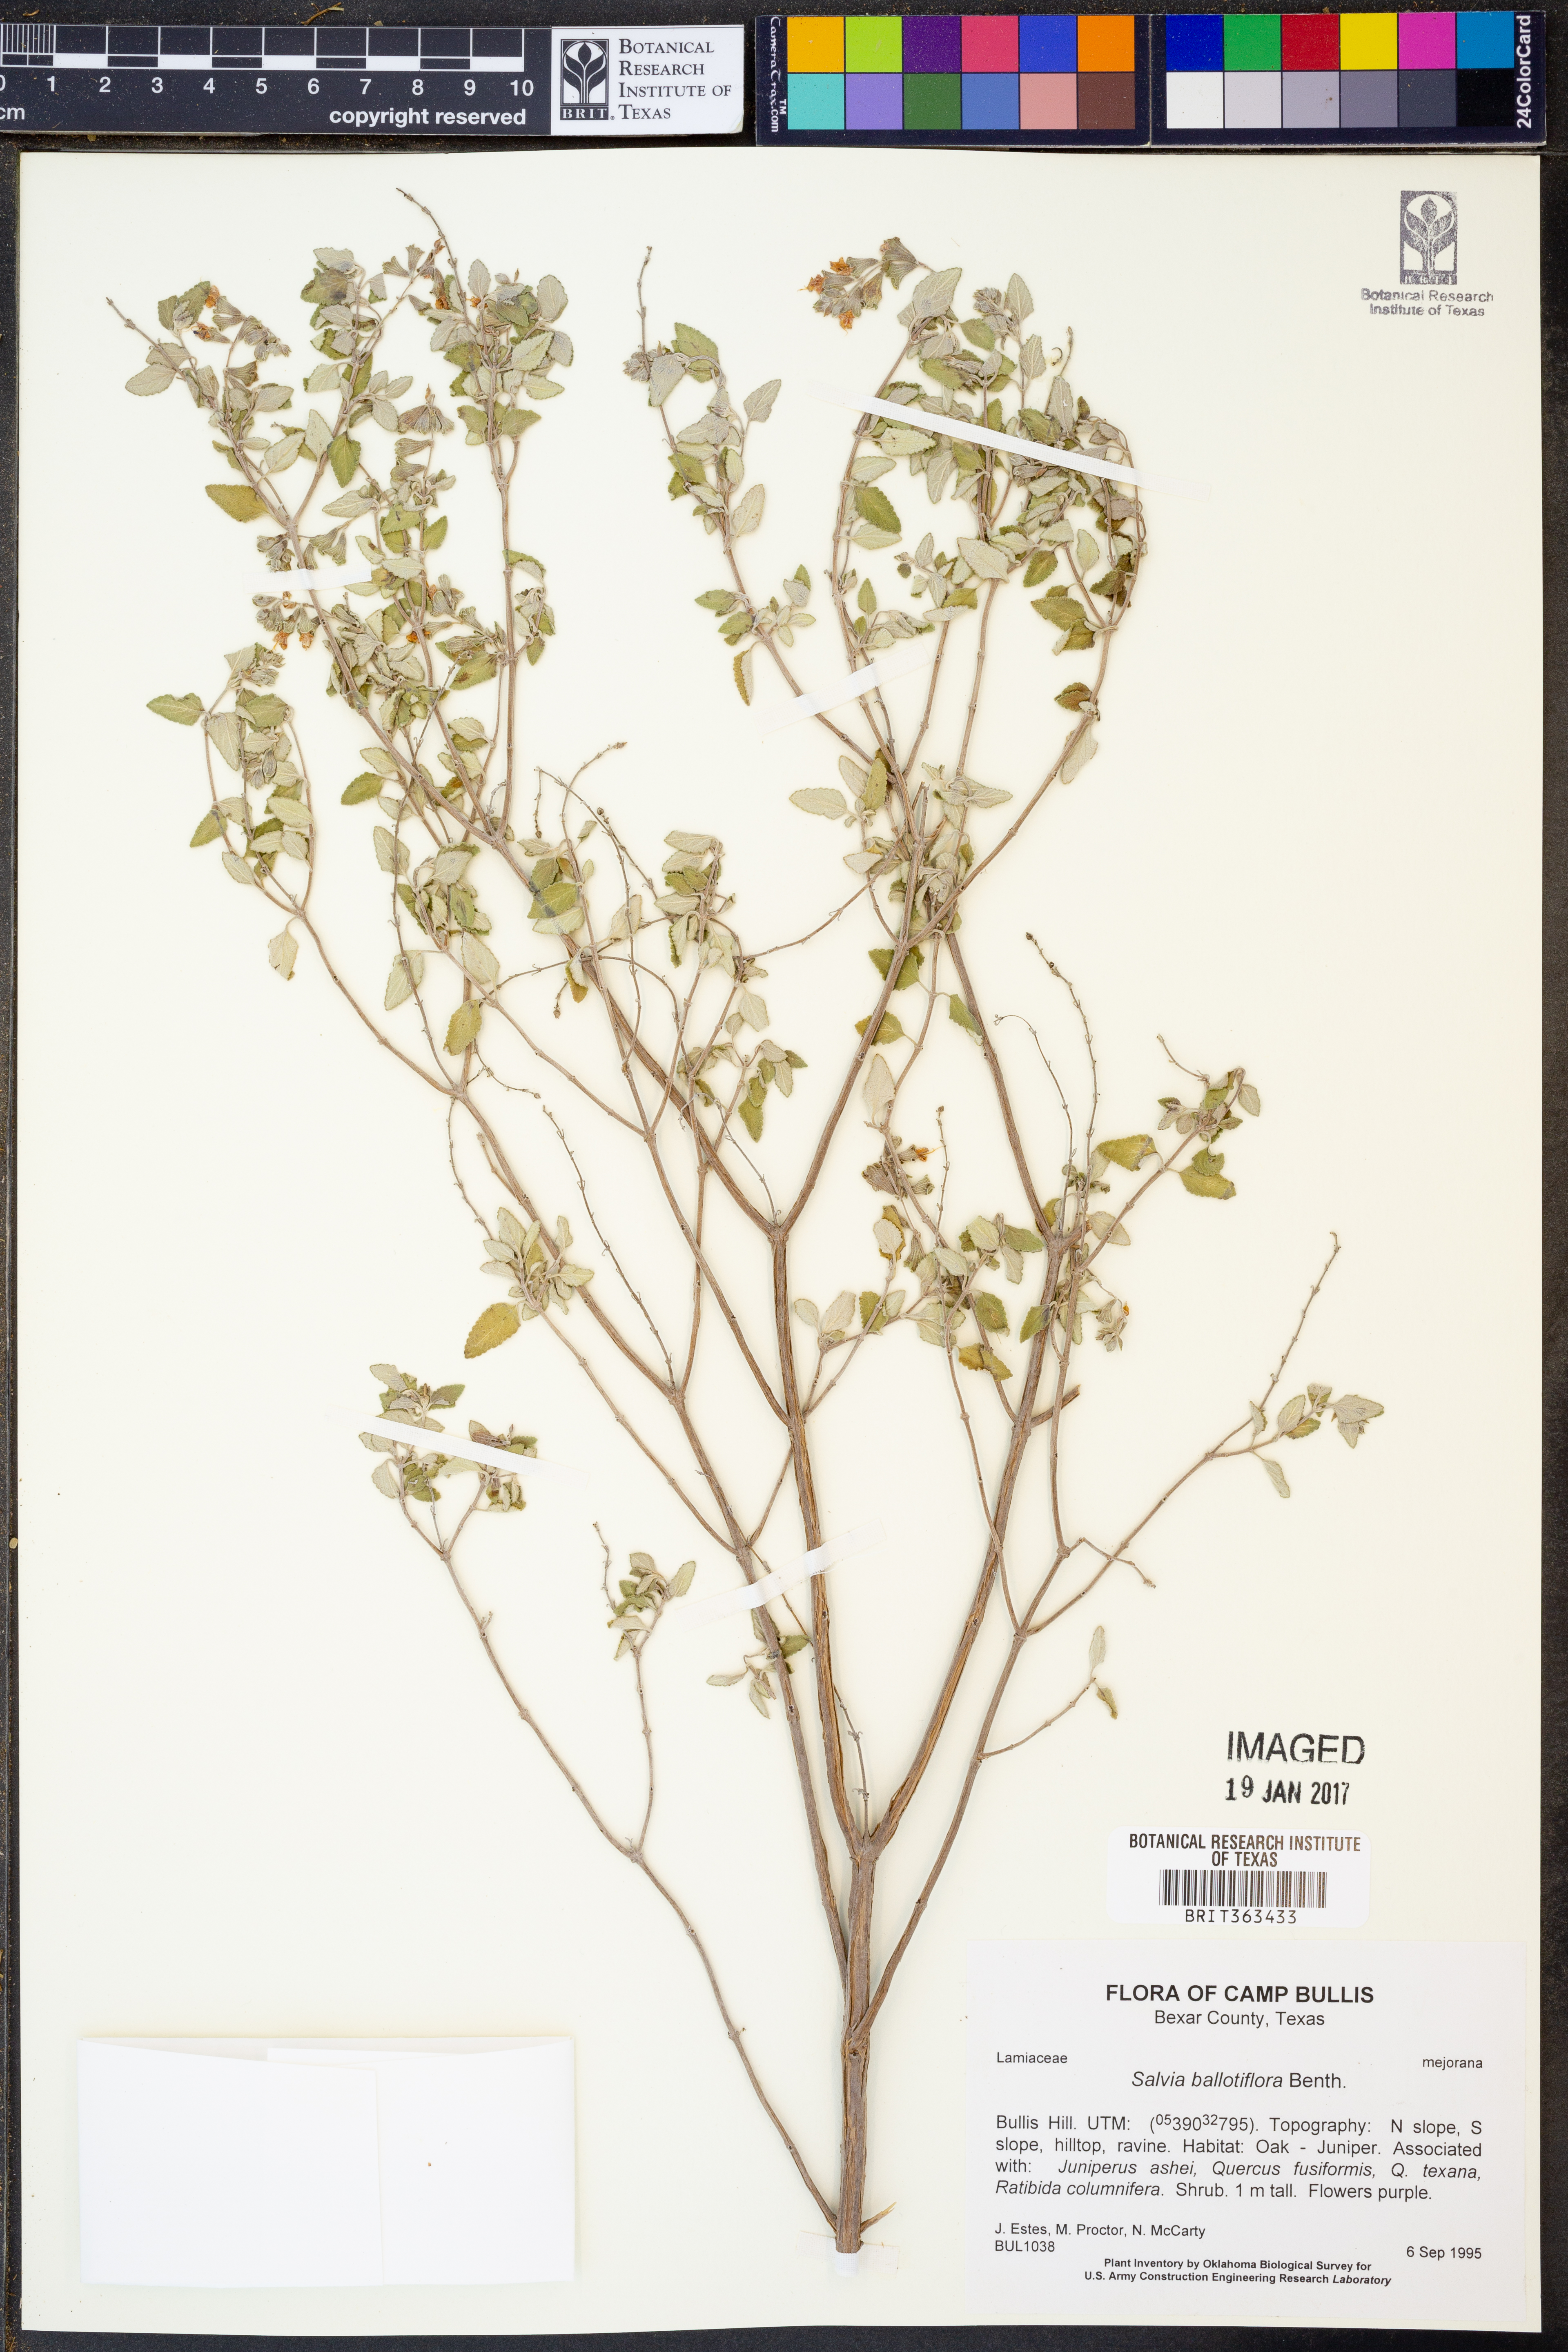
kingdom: Plantae
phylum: Tracheophyta
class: Magnoliopsida
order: Lamiales
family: Lamiaceae
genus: Salvia
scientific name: Salvia ballotiflora
